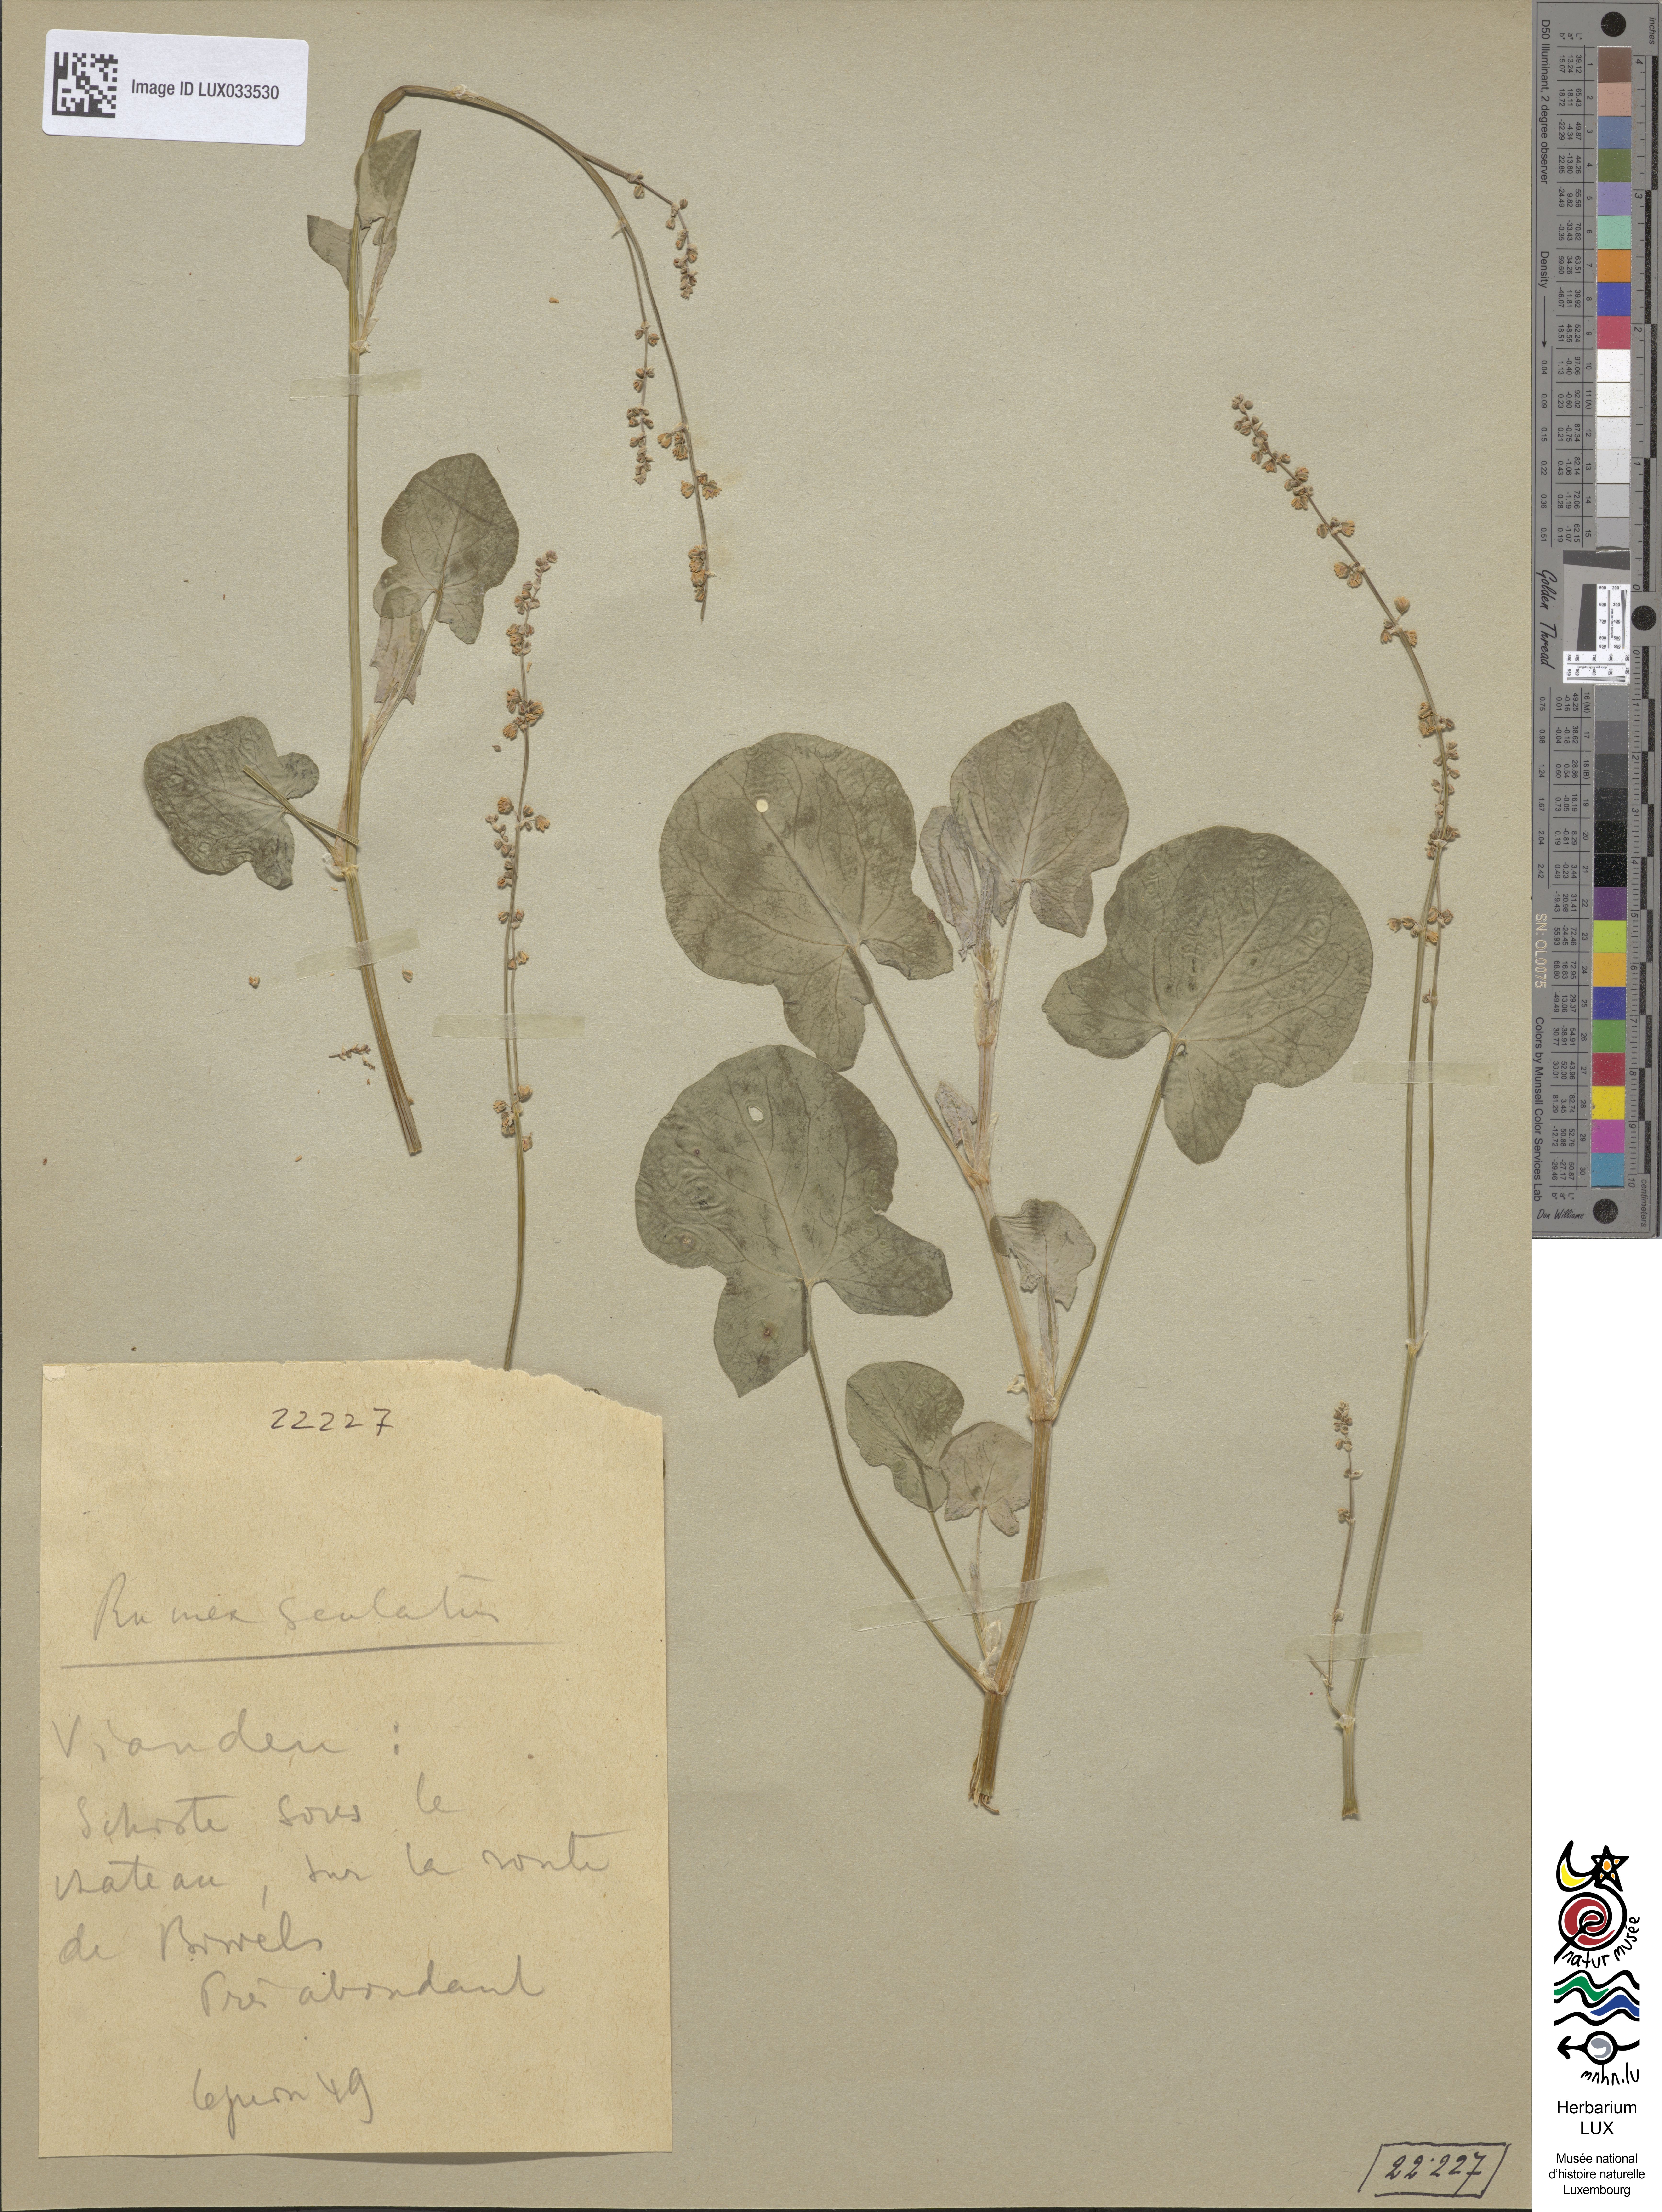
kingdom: Plantae
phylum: Tracheophyta
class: Magnoliopsida
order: Caryophyllales
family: Polygonaceae
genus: Rumex
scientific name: Rumex scutatus
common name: French sorrel
